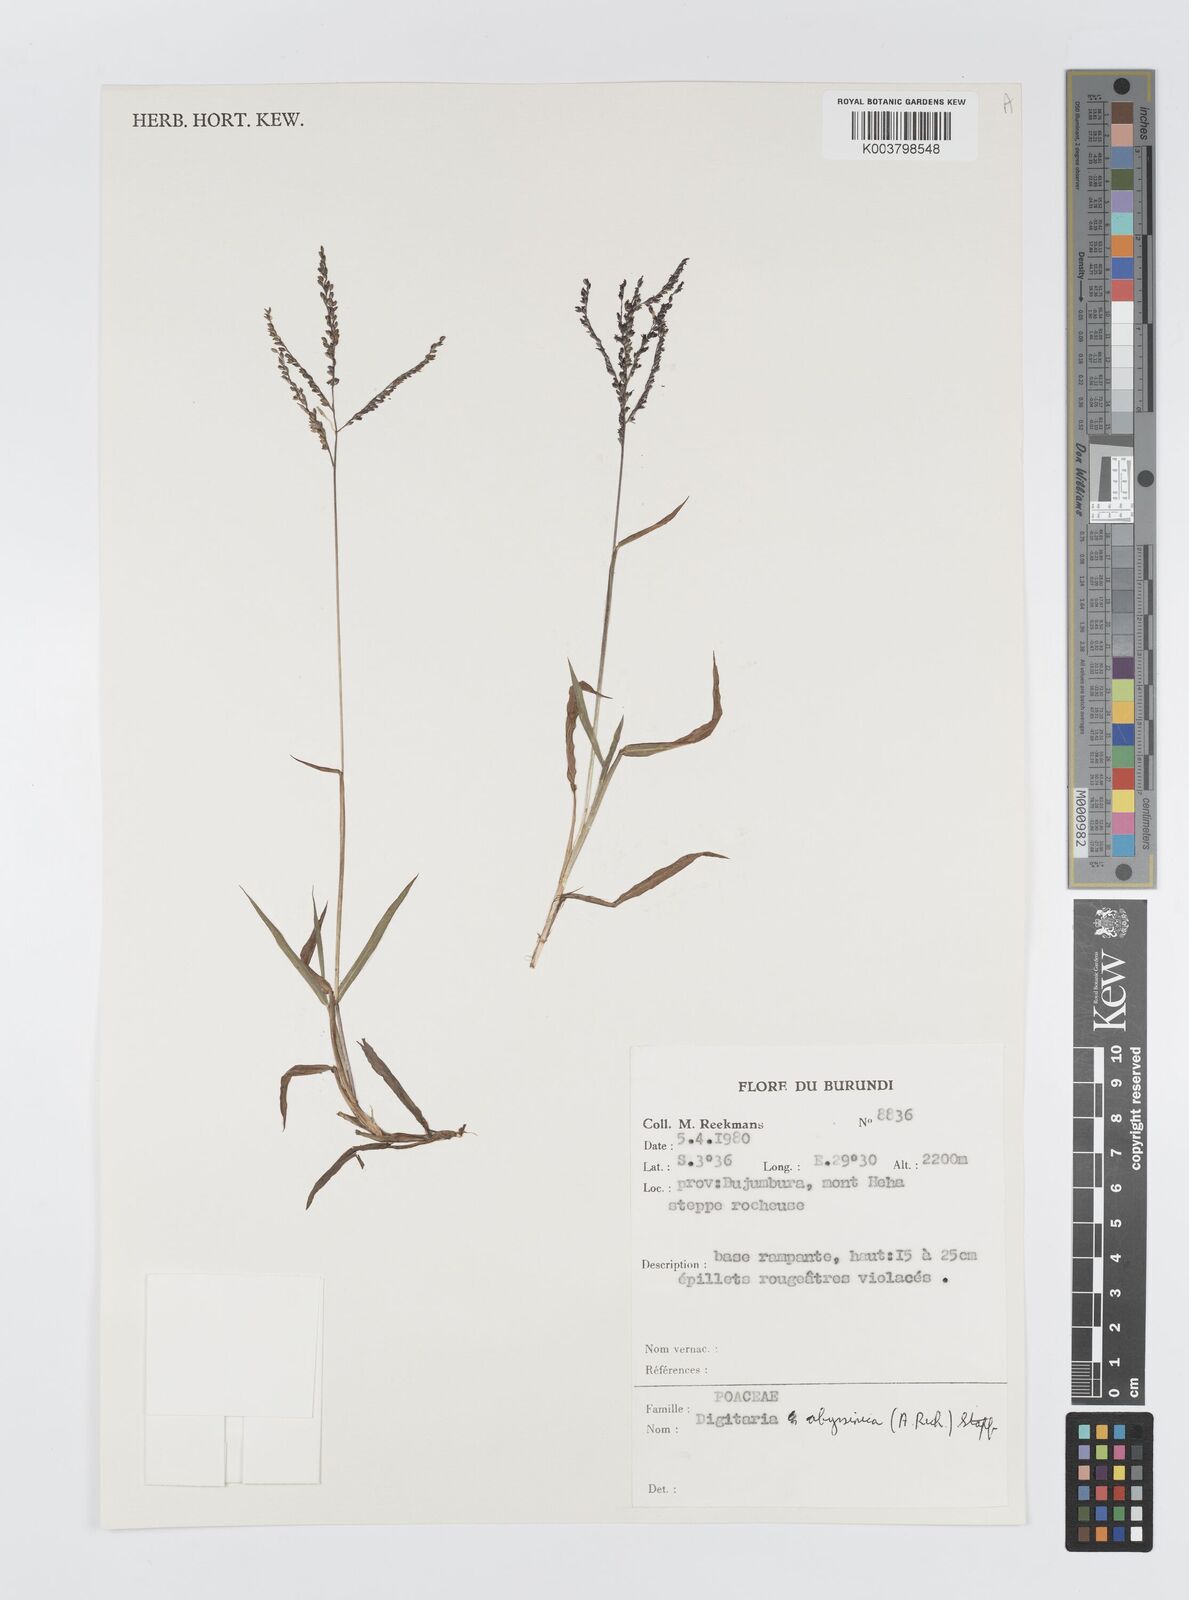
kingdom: Plantae
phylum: Tracheophyta
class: Liliopsida
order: Poales
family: Poaceae
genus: Digitaria
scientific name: Digitaria abyssinica
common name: African couchgrass
